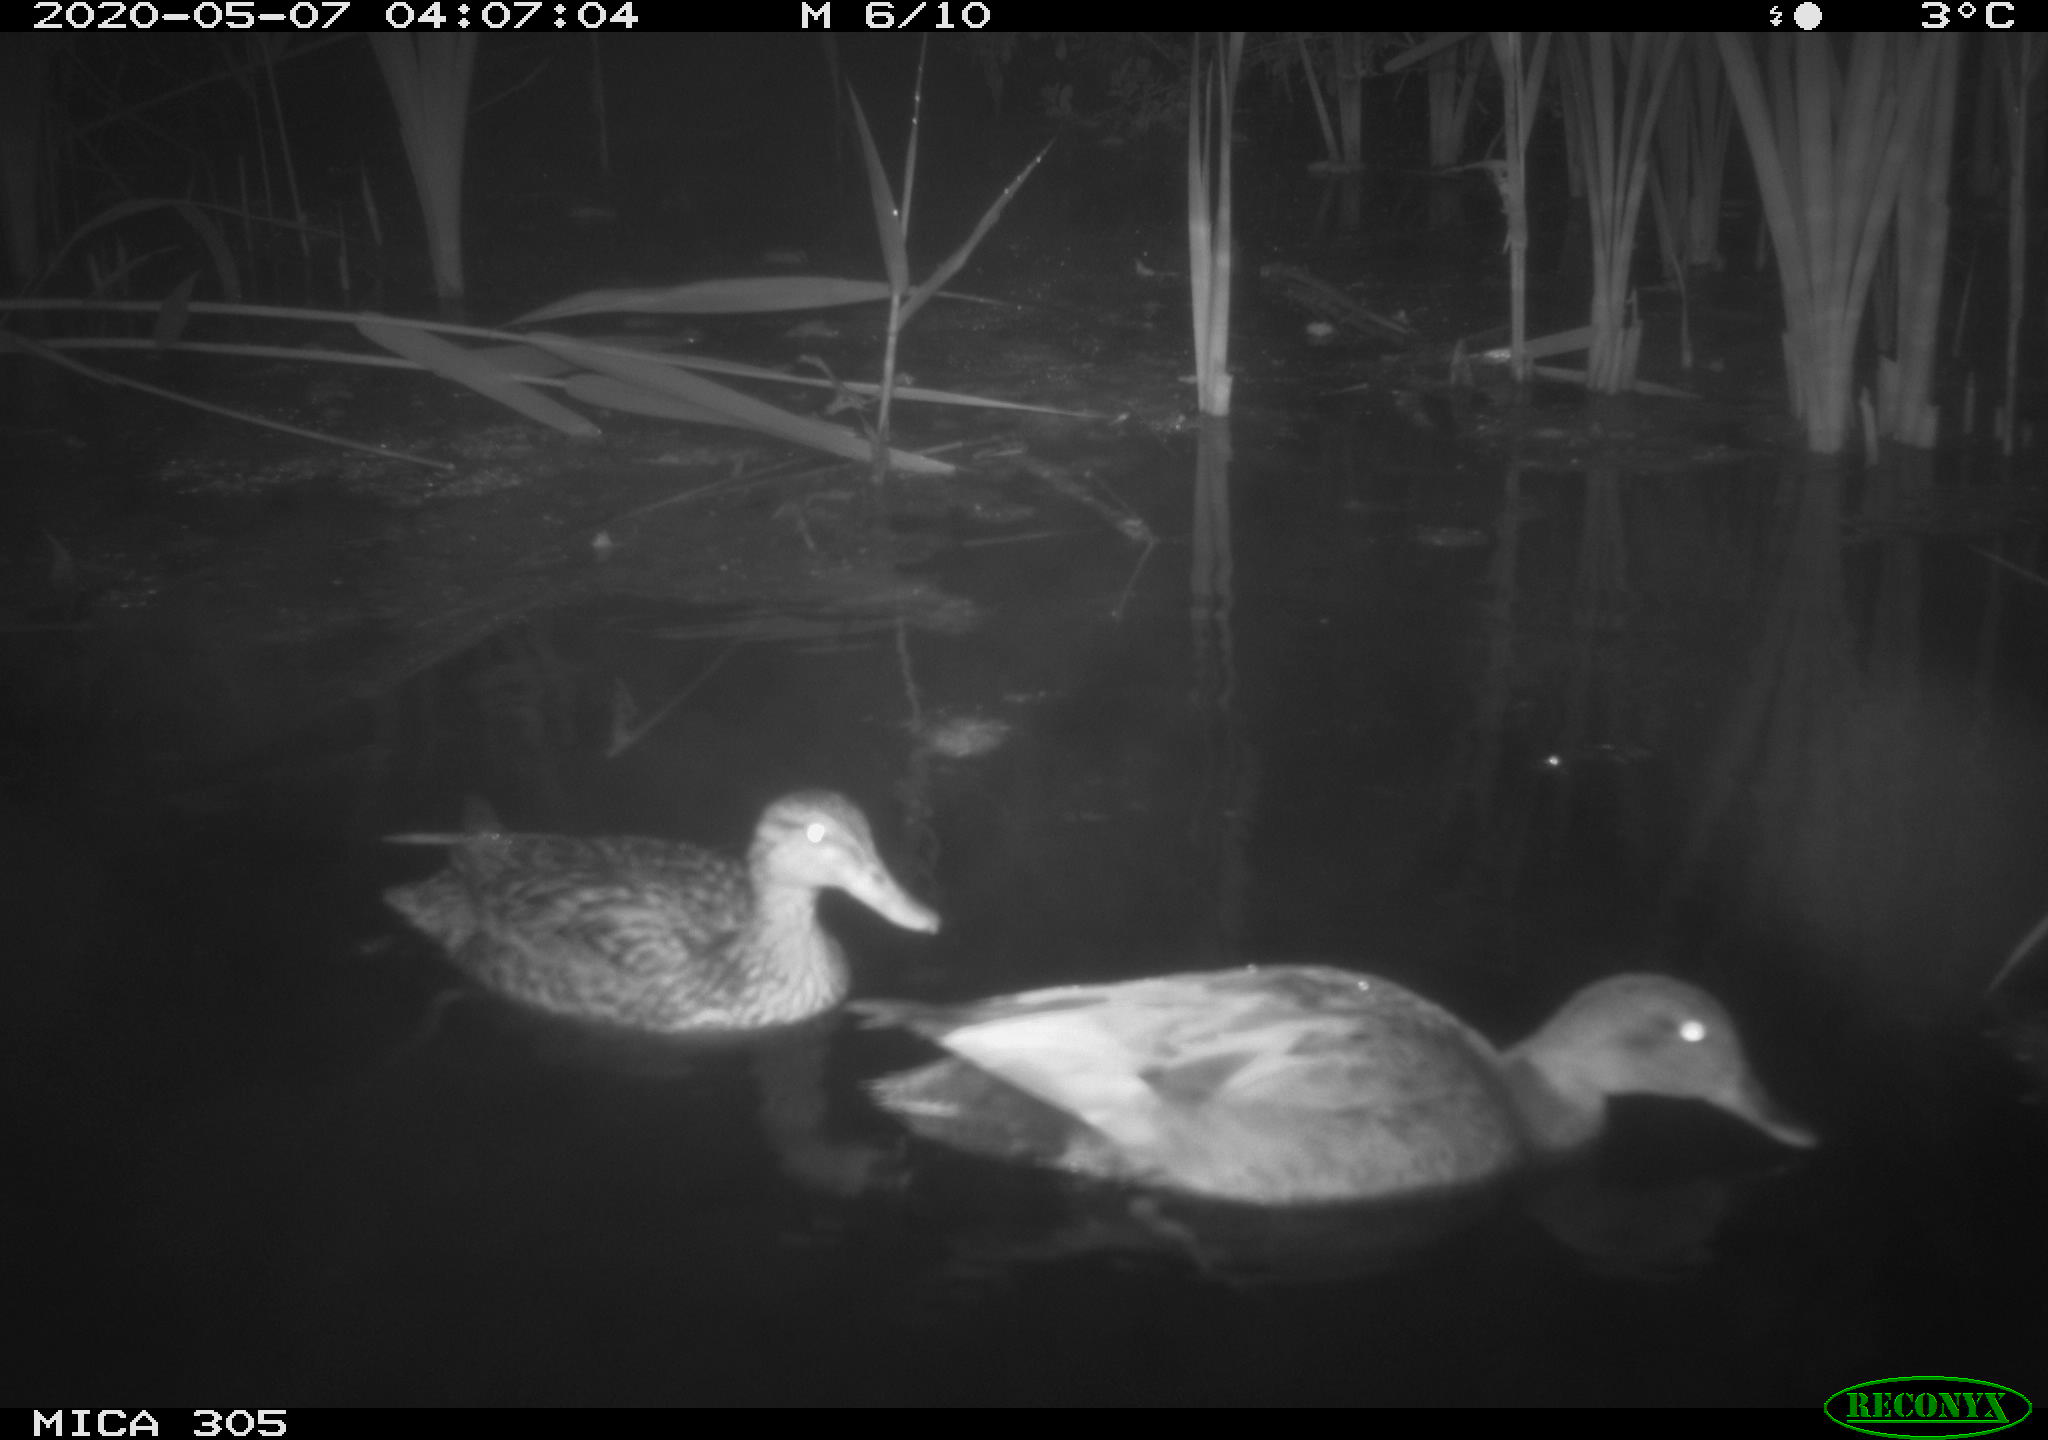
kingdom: Animalia
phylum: Chordata
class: Aves
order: Anseriformes
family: Anatidae
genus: Mareca
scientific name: Mareca strepera
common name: Gadwall
